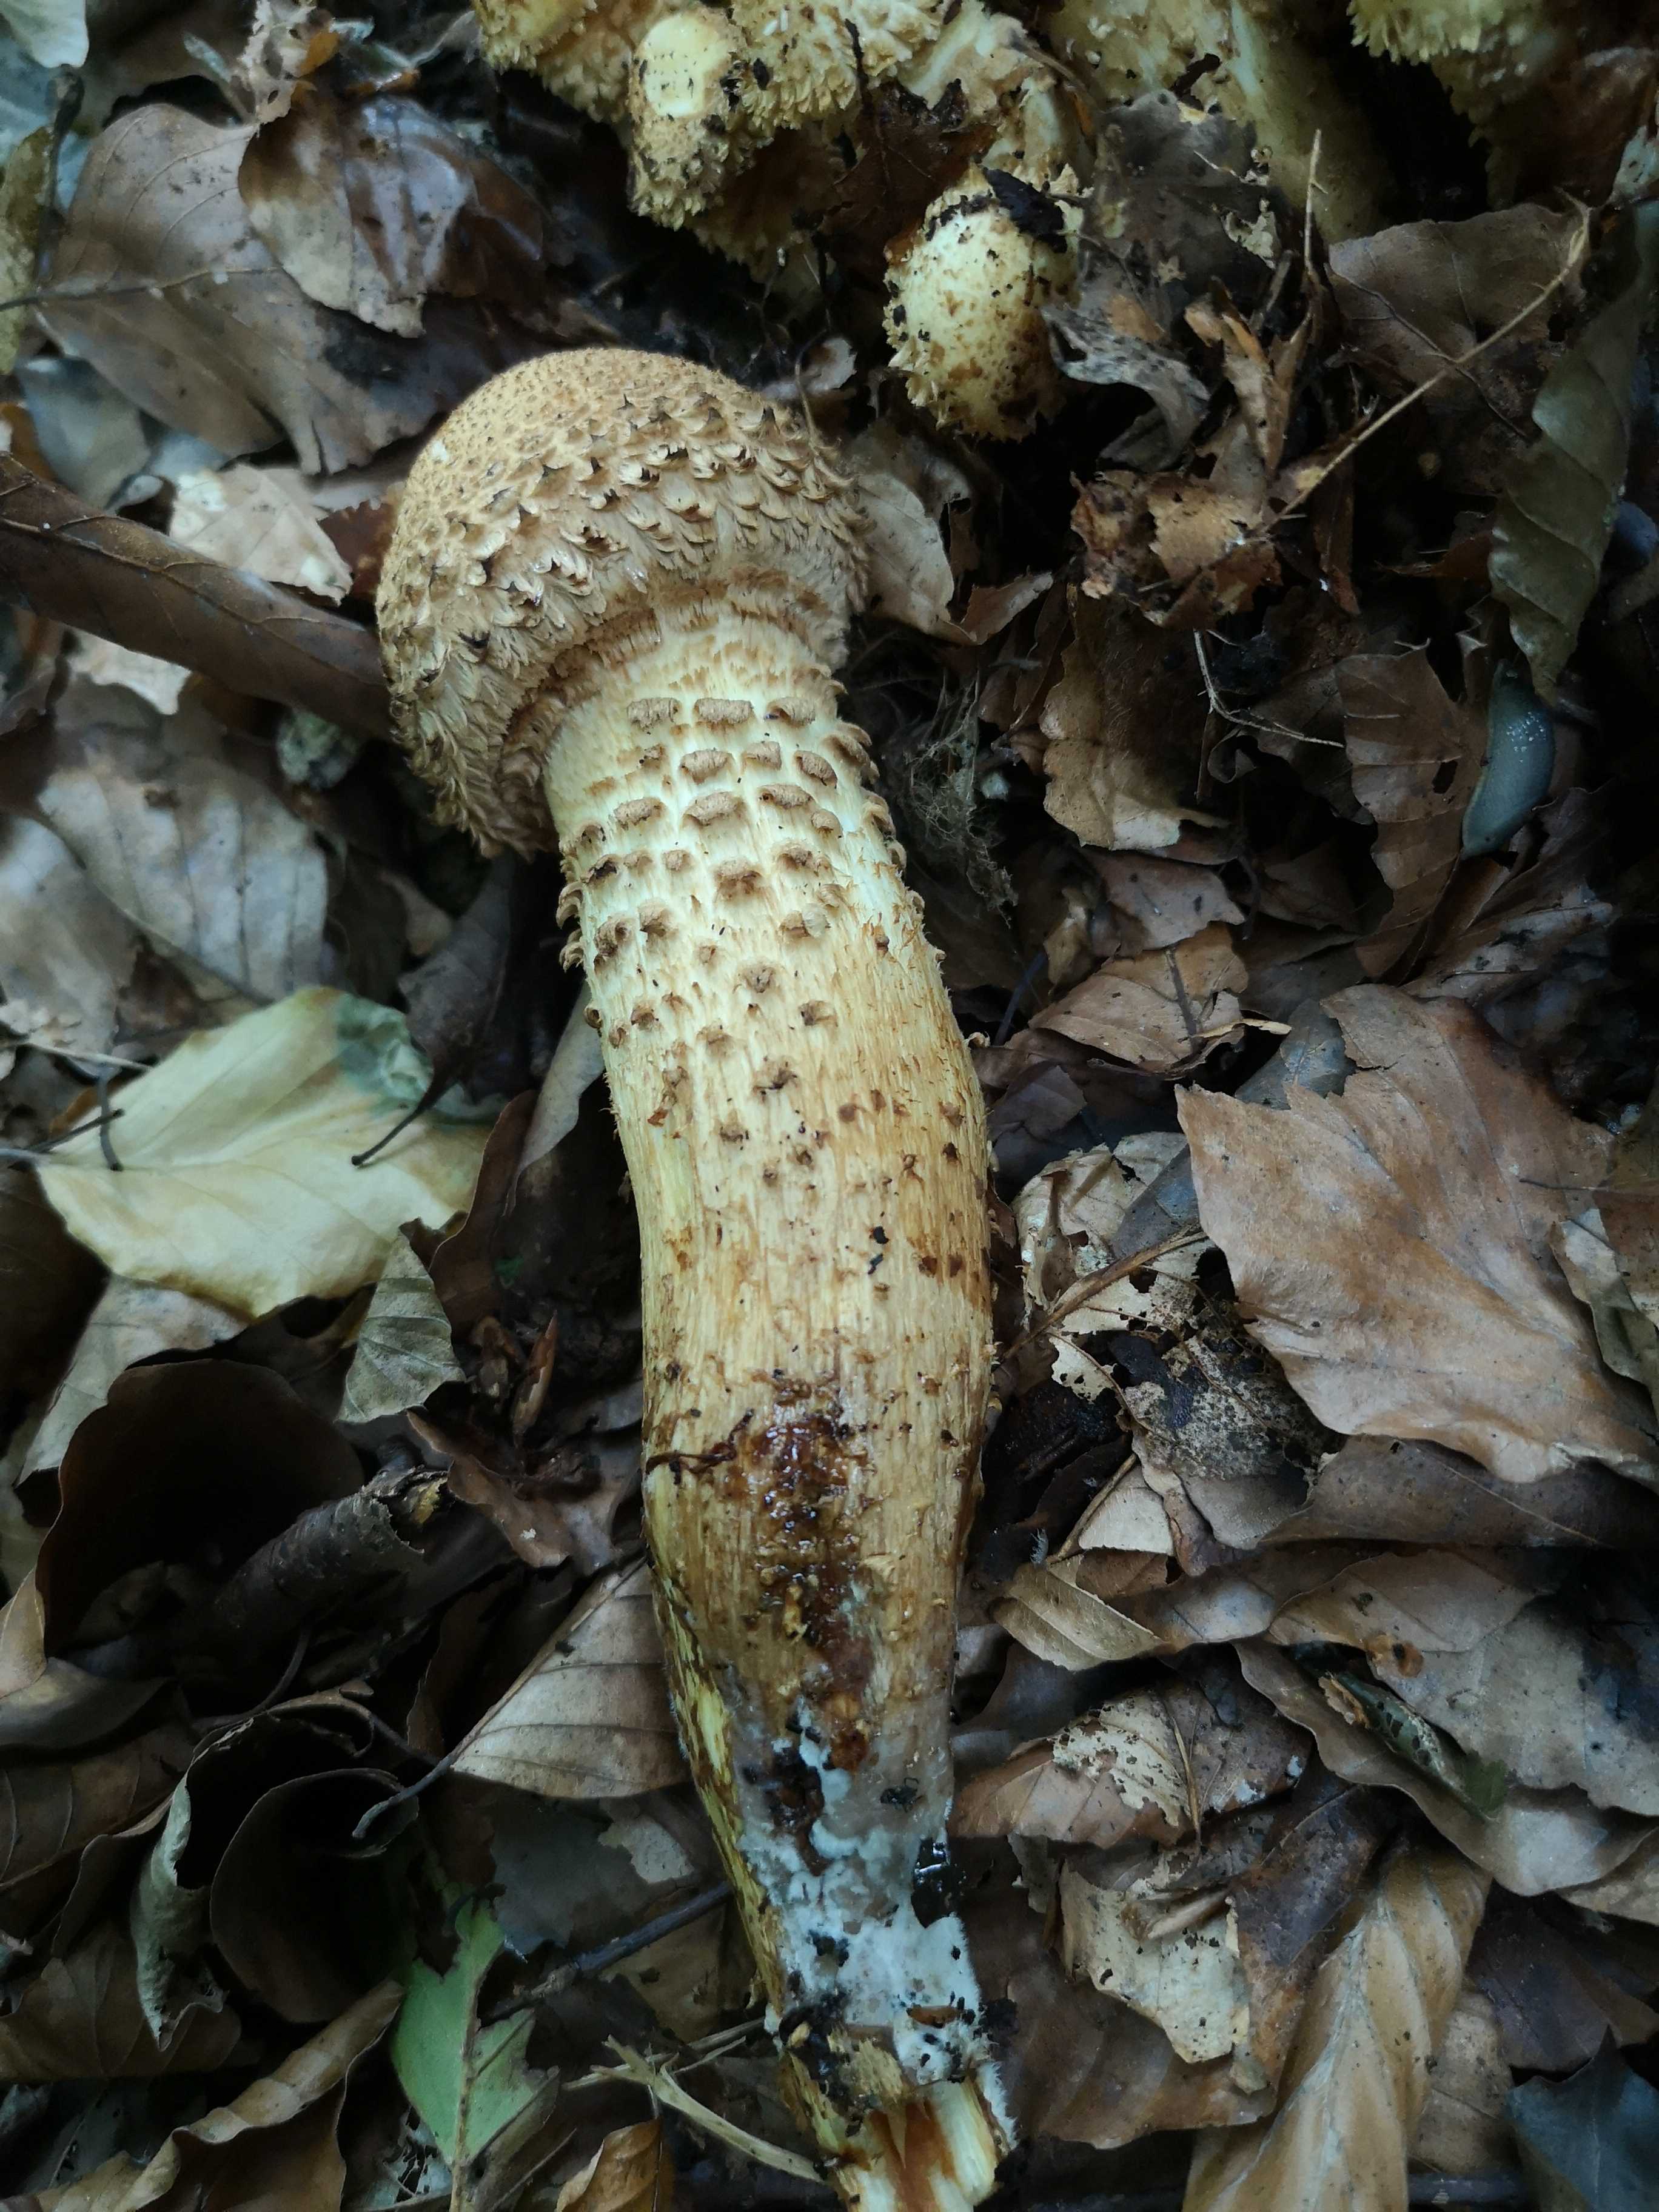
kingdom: Fungi
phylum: Basidiomycota
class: Agaricomycetes
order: Agaricales
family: Strophariaceae
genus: Pholiota
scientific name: Pholiota squarrosa
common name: krumskællet skælhat
